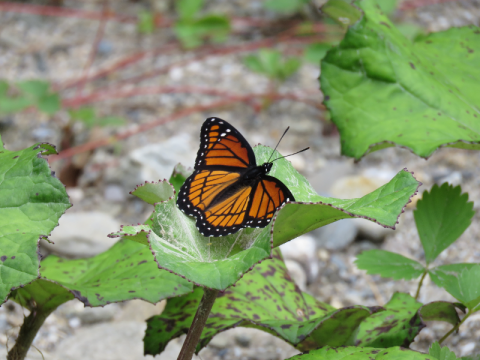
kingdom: Animalia
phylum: Arthropoda
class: Insecta
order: Lepidoptera
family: Nymphalidae
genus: Limenitis
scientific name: Limenitis archippus
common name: Viceroy
